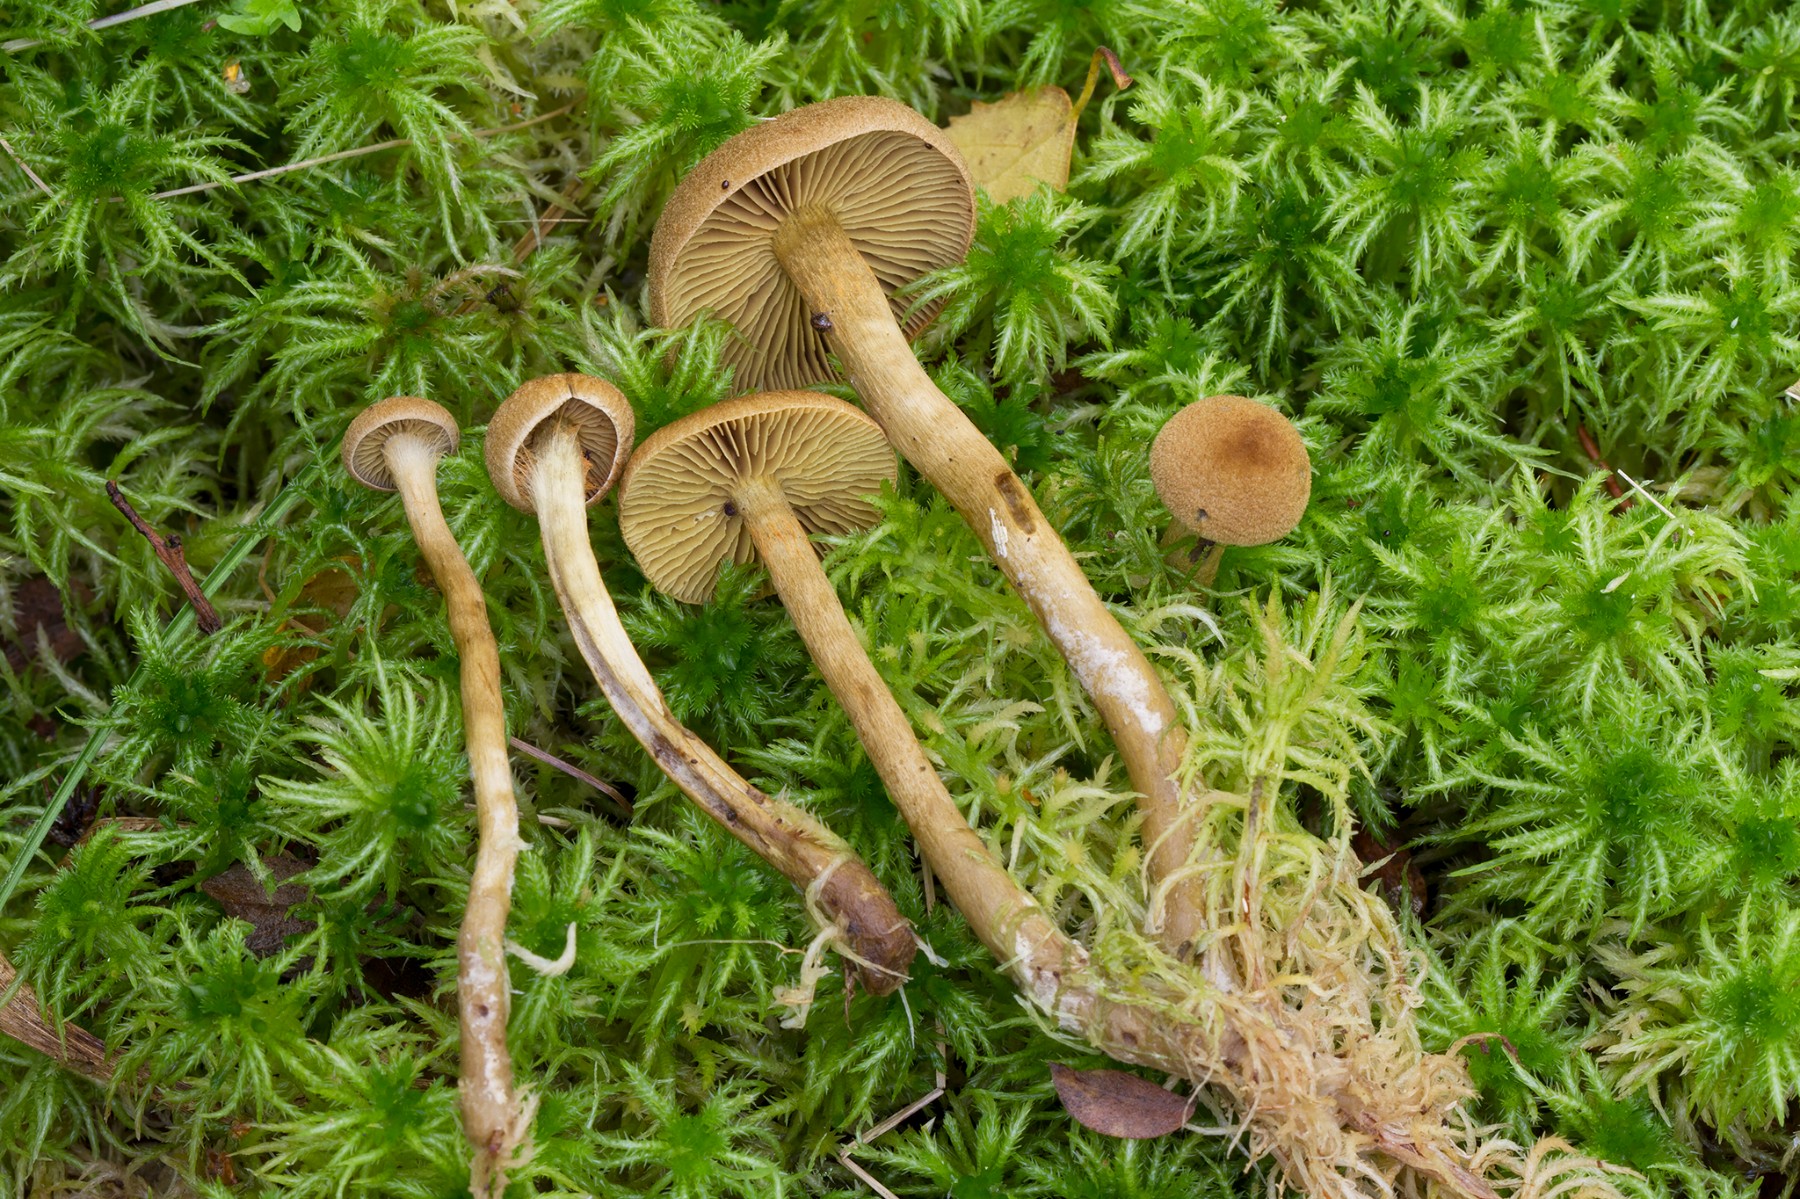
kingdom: Fungi
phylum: Basidiomycota
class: Agaricomycetes
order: Agaricales
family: Cortinariaceae
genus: Cortinarius
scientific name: Cortinarius chrysolitus
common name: tørve-slørhat
